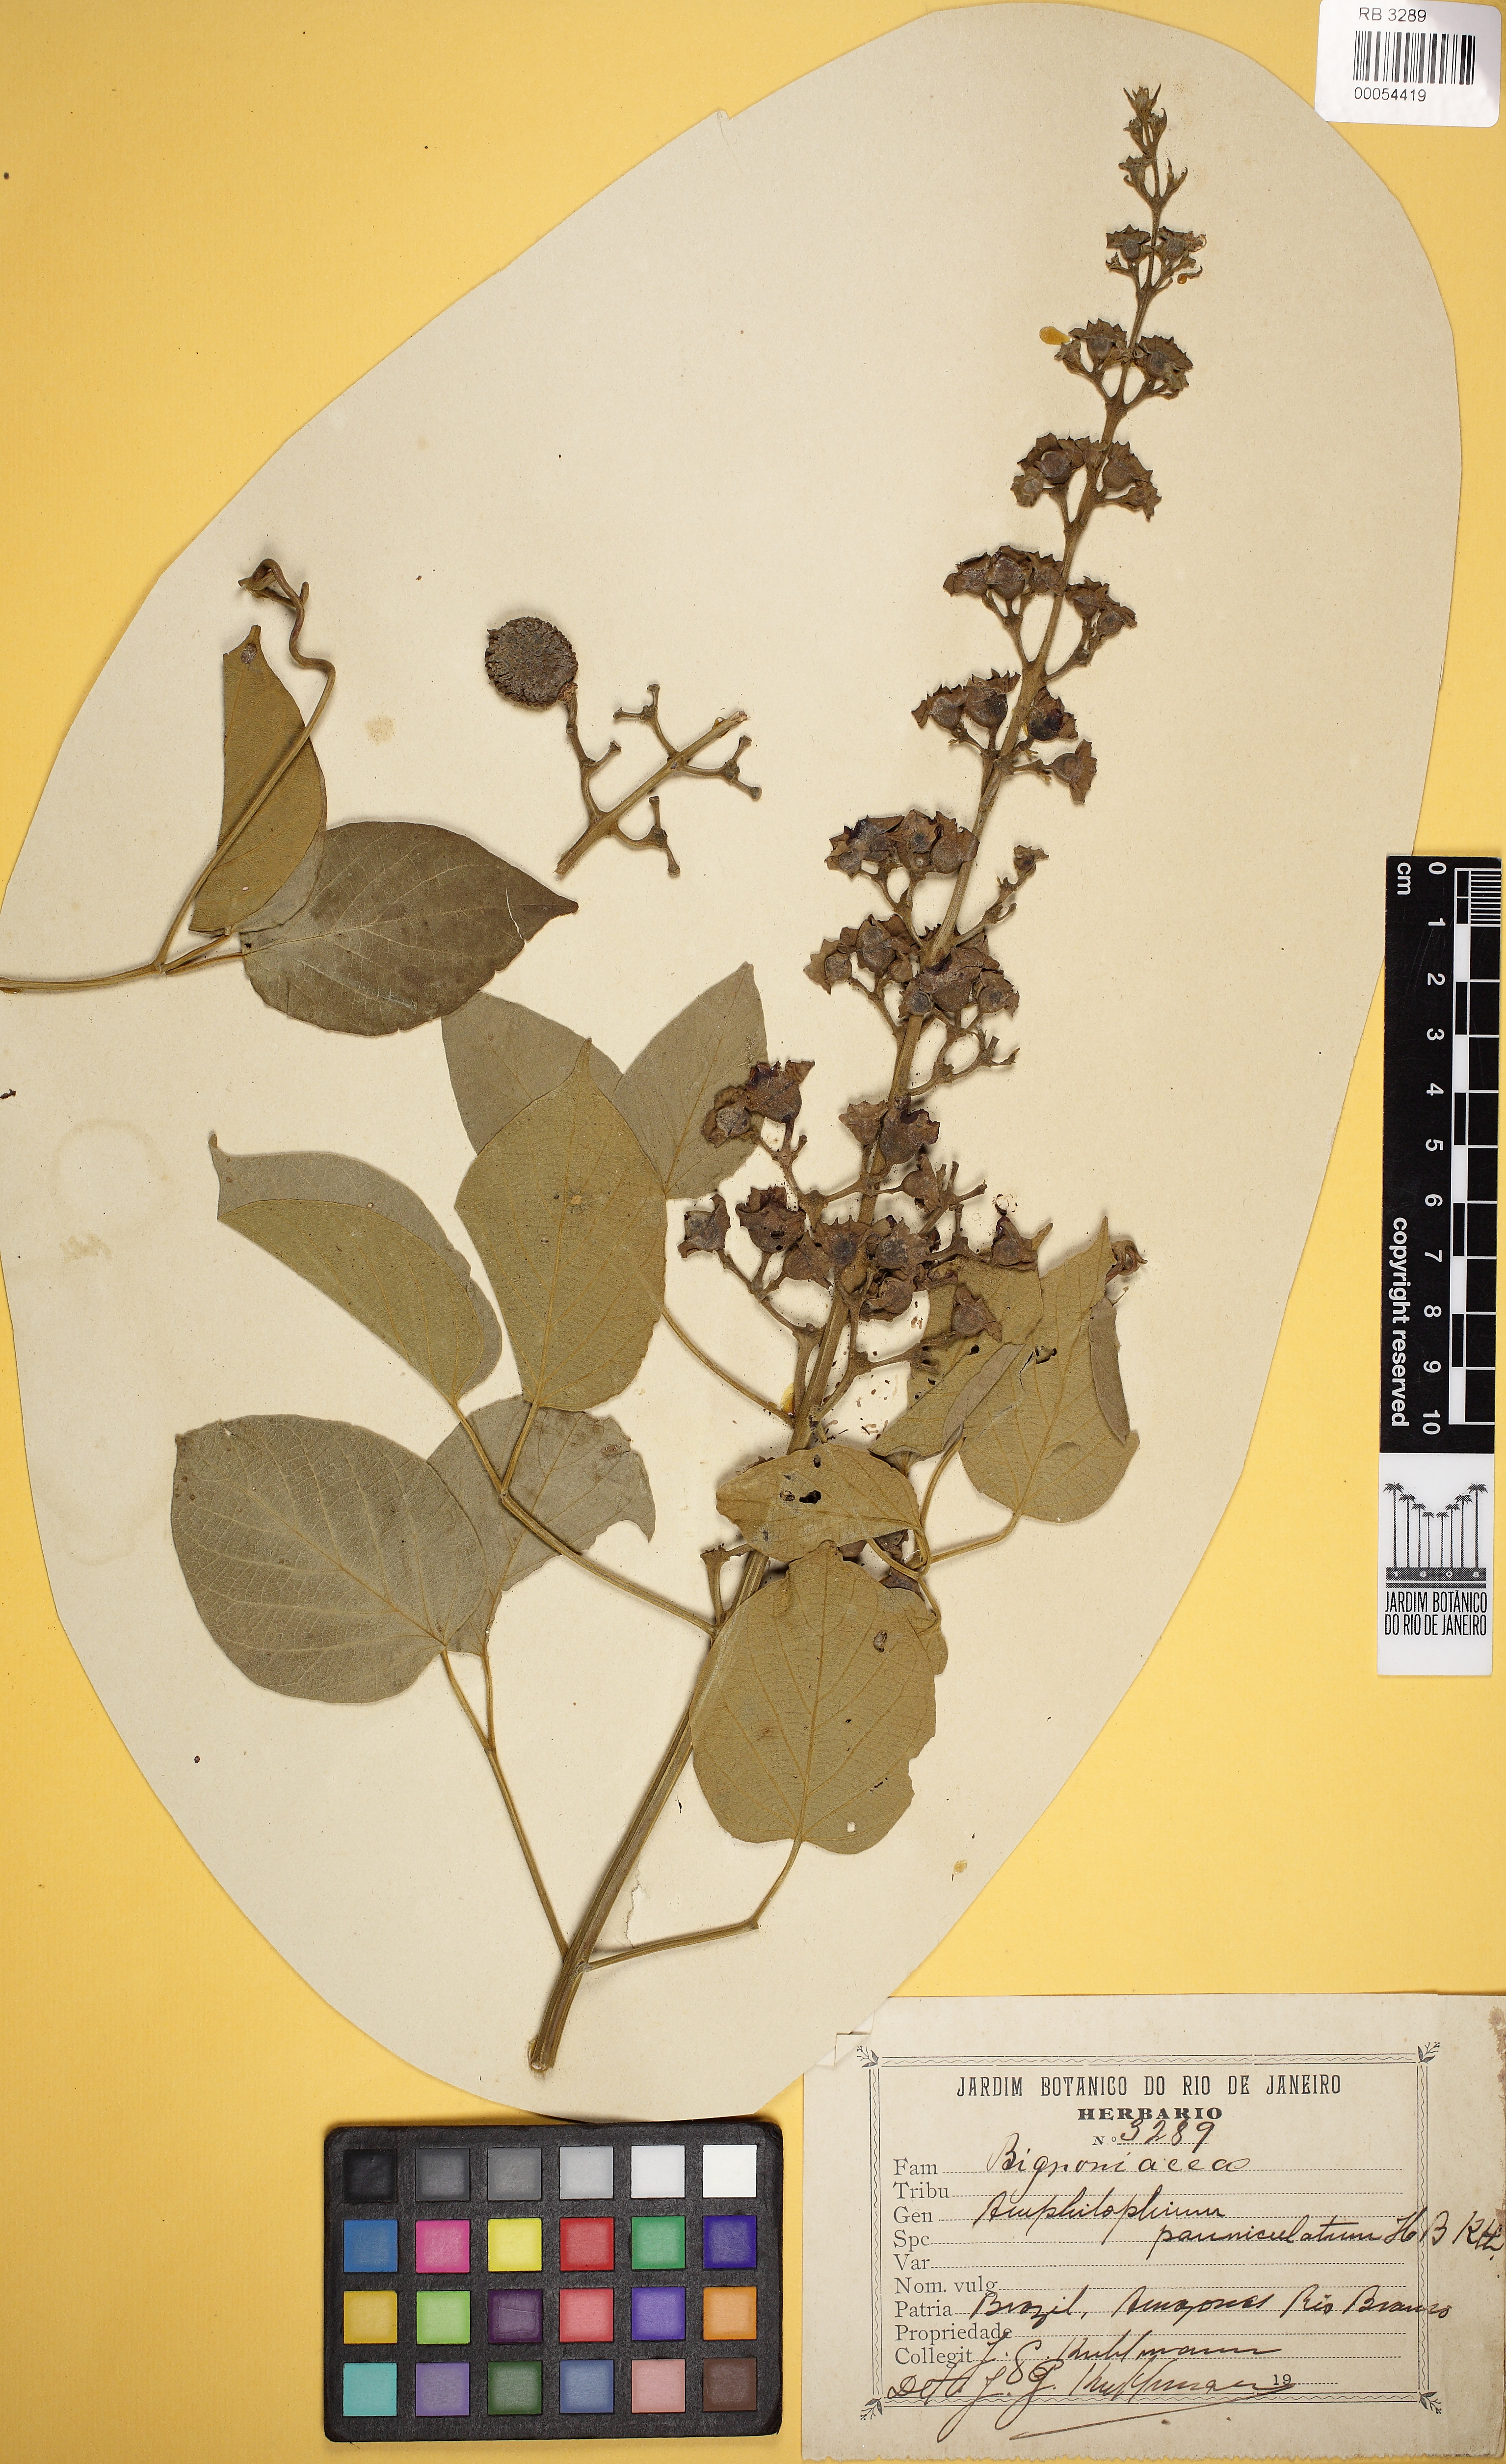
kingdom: Plantae
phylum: Tracheophyta
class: Magnoliopsida
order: Lamiales
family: Bignoniaceae
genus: Amphilophium
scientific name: Amphilophium paniculatum
